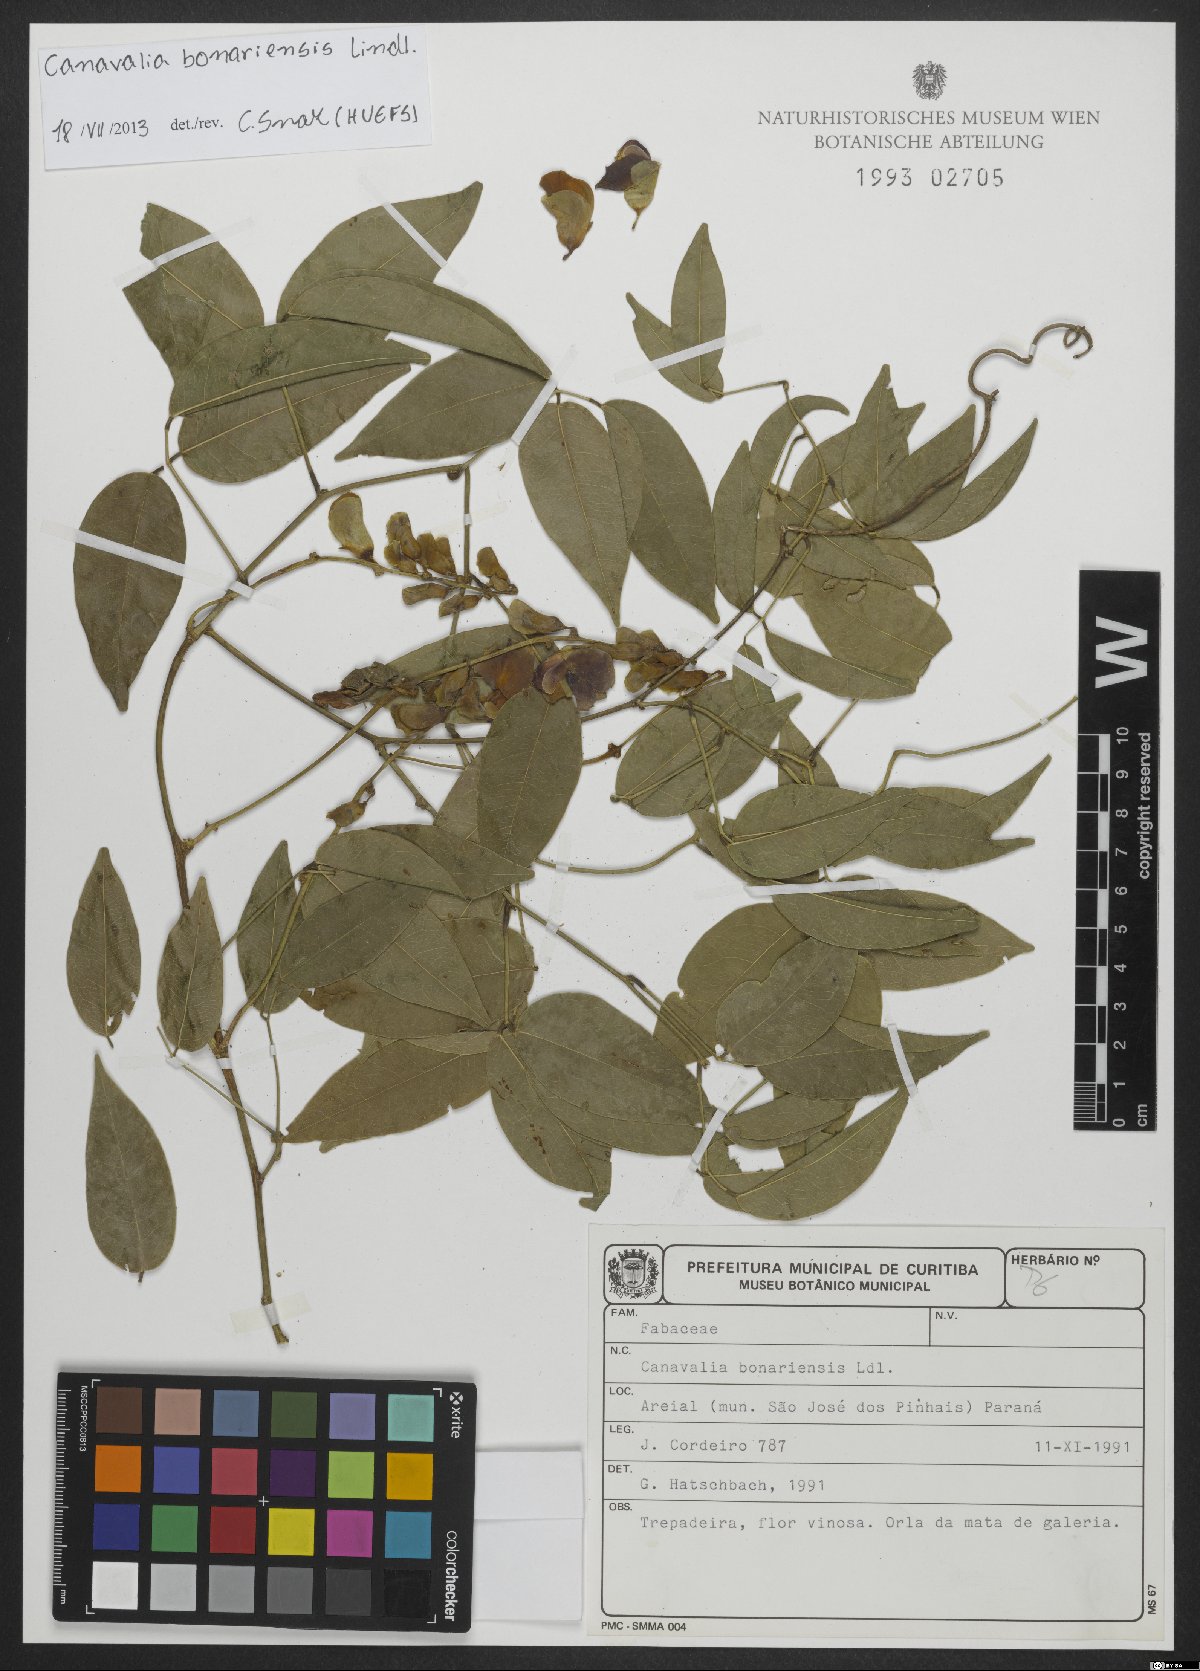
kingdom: Plantae
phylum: Tracheophyta
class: Magnoliopsida
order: Fabales
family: Fabaceae
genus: Canavalia
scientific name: Canavalia bonariensis
